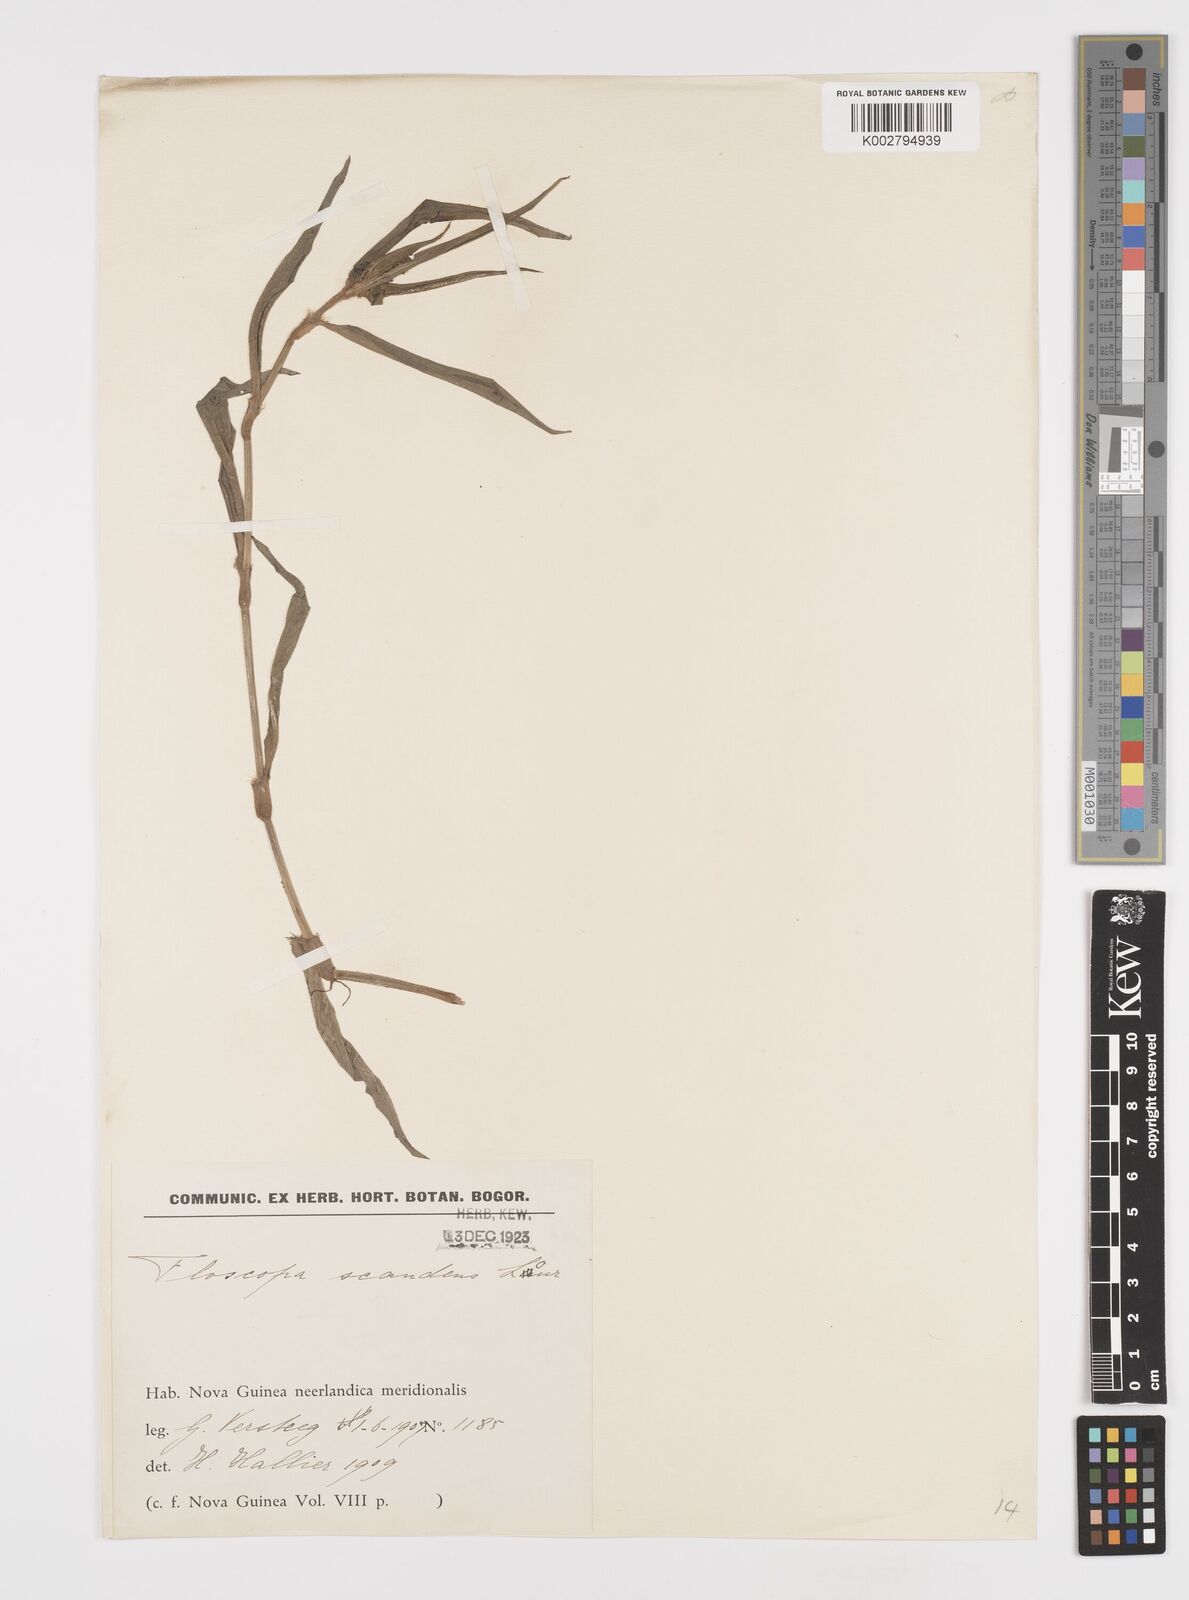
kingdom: Plantae
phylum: Tracheophyta
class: Liliopsida
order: Commelinales
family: Commelinaceae
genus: Floscopa
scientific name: Floscopa scandens
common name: Climbing flower cup
